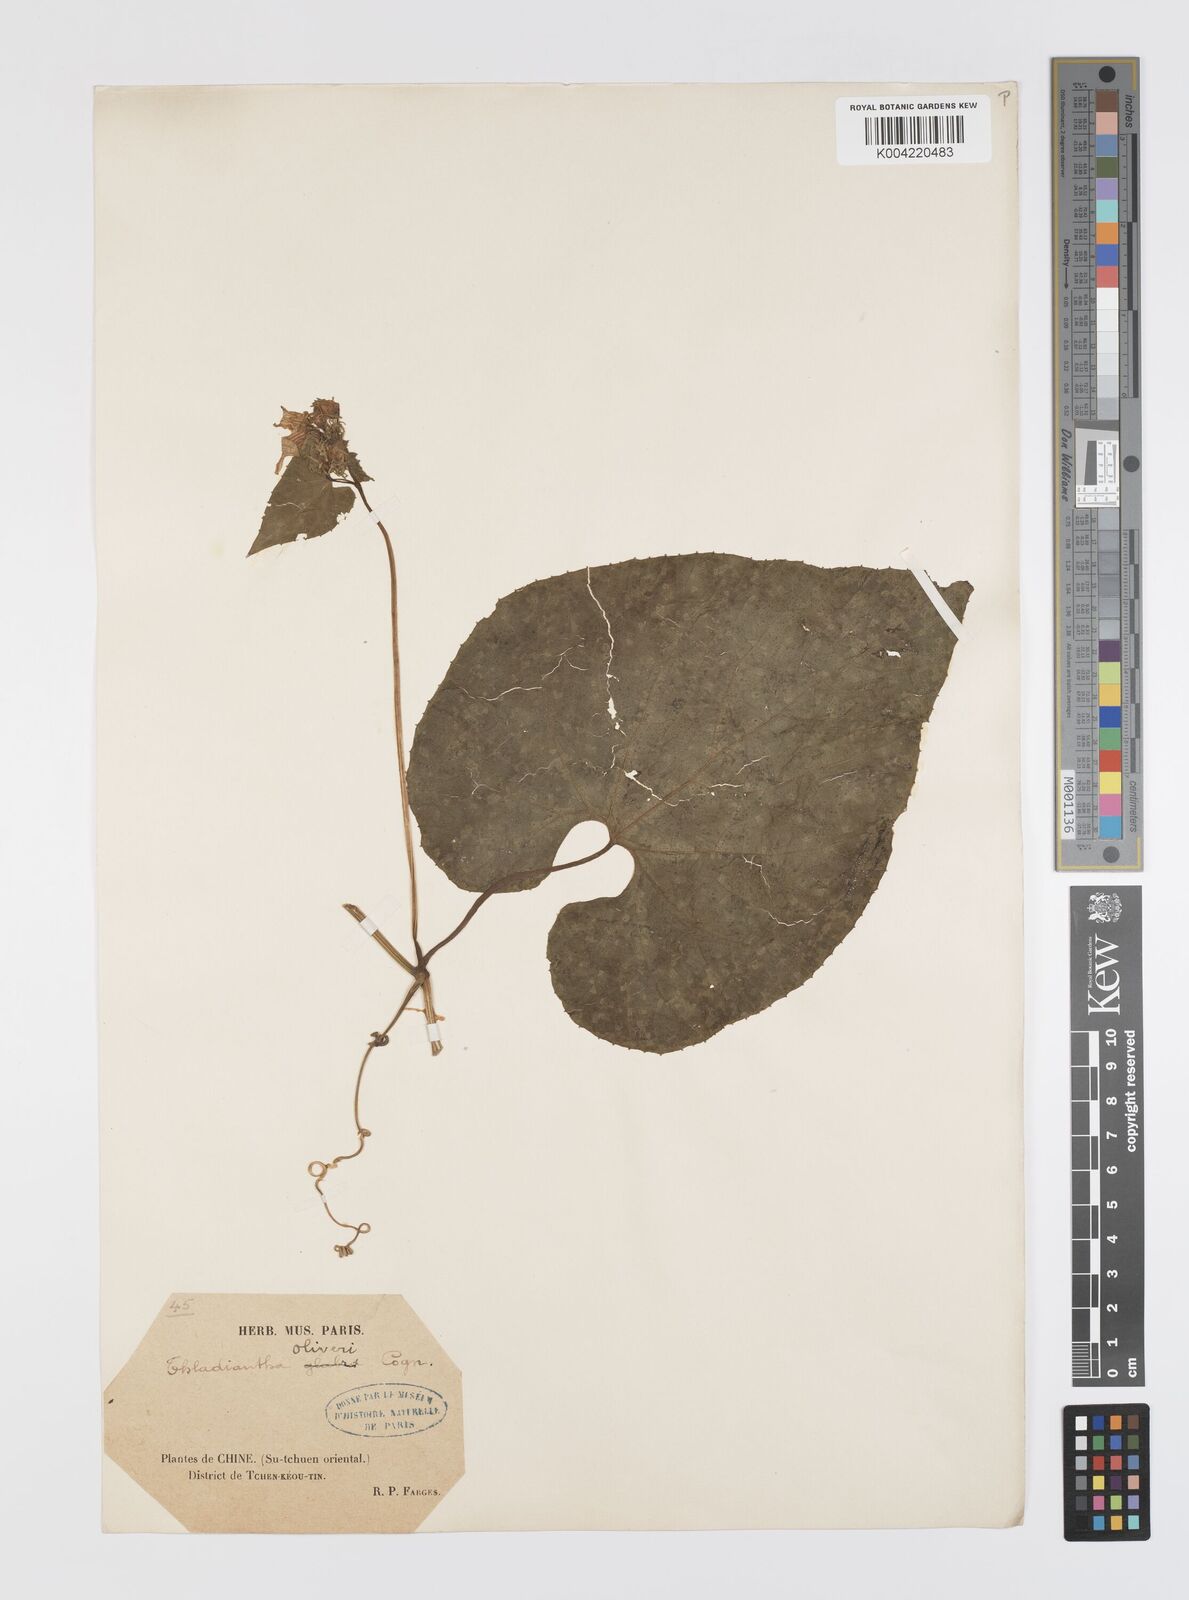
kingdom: Plantae
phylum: Tracheophyta
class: Magnoliopsida
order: Cucurbitales
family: Cucurbitaceae
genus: Thladiantha
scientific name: Thladiantha oliveri
